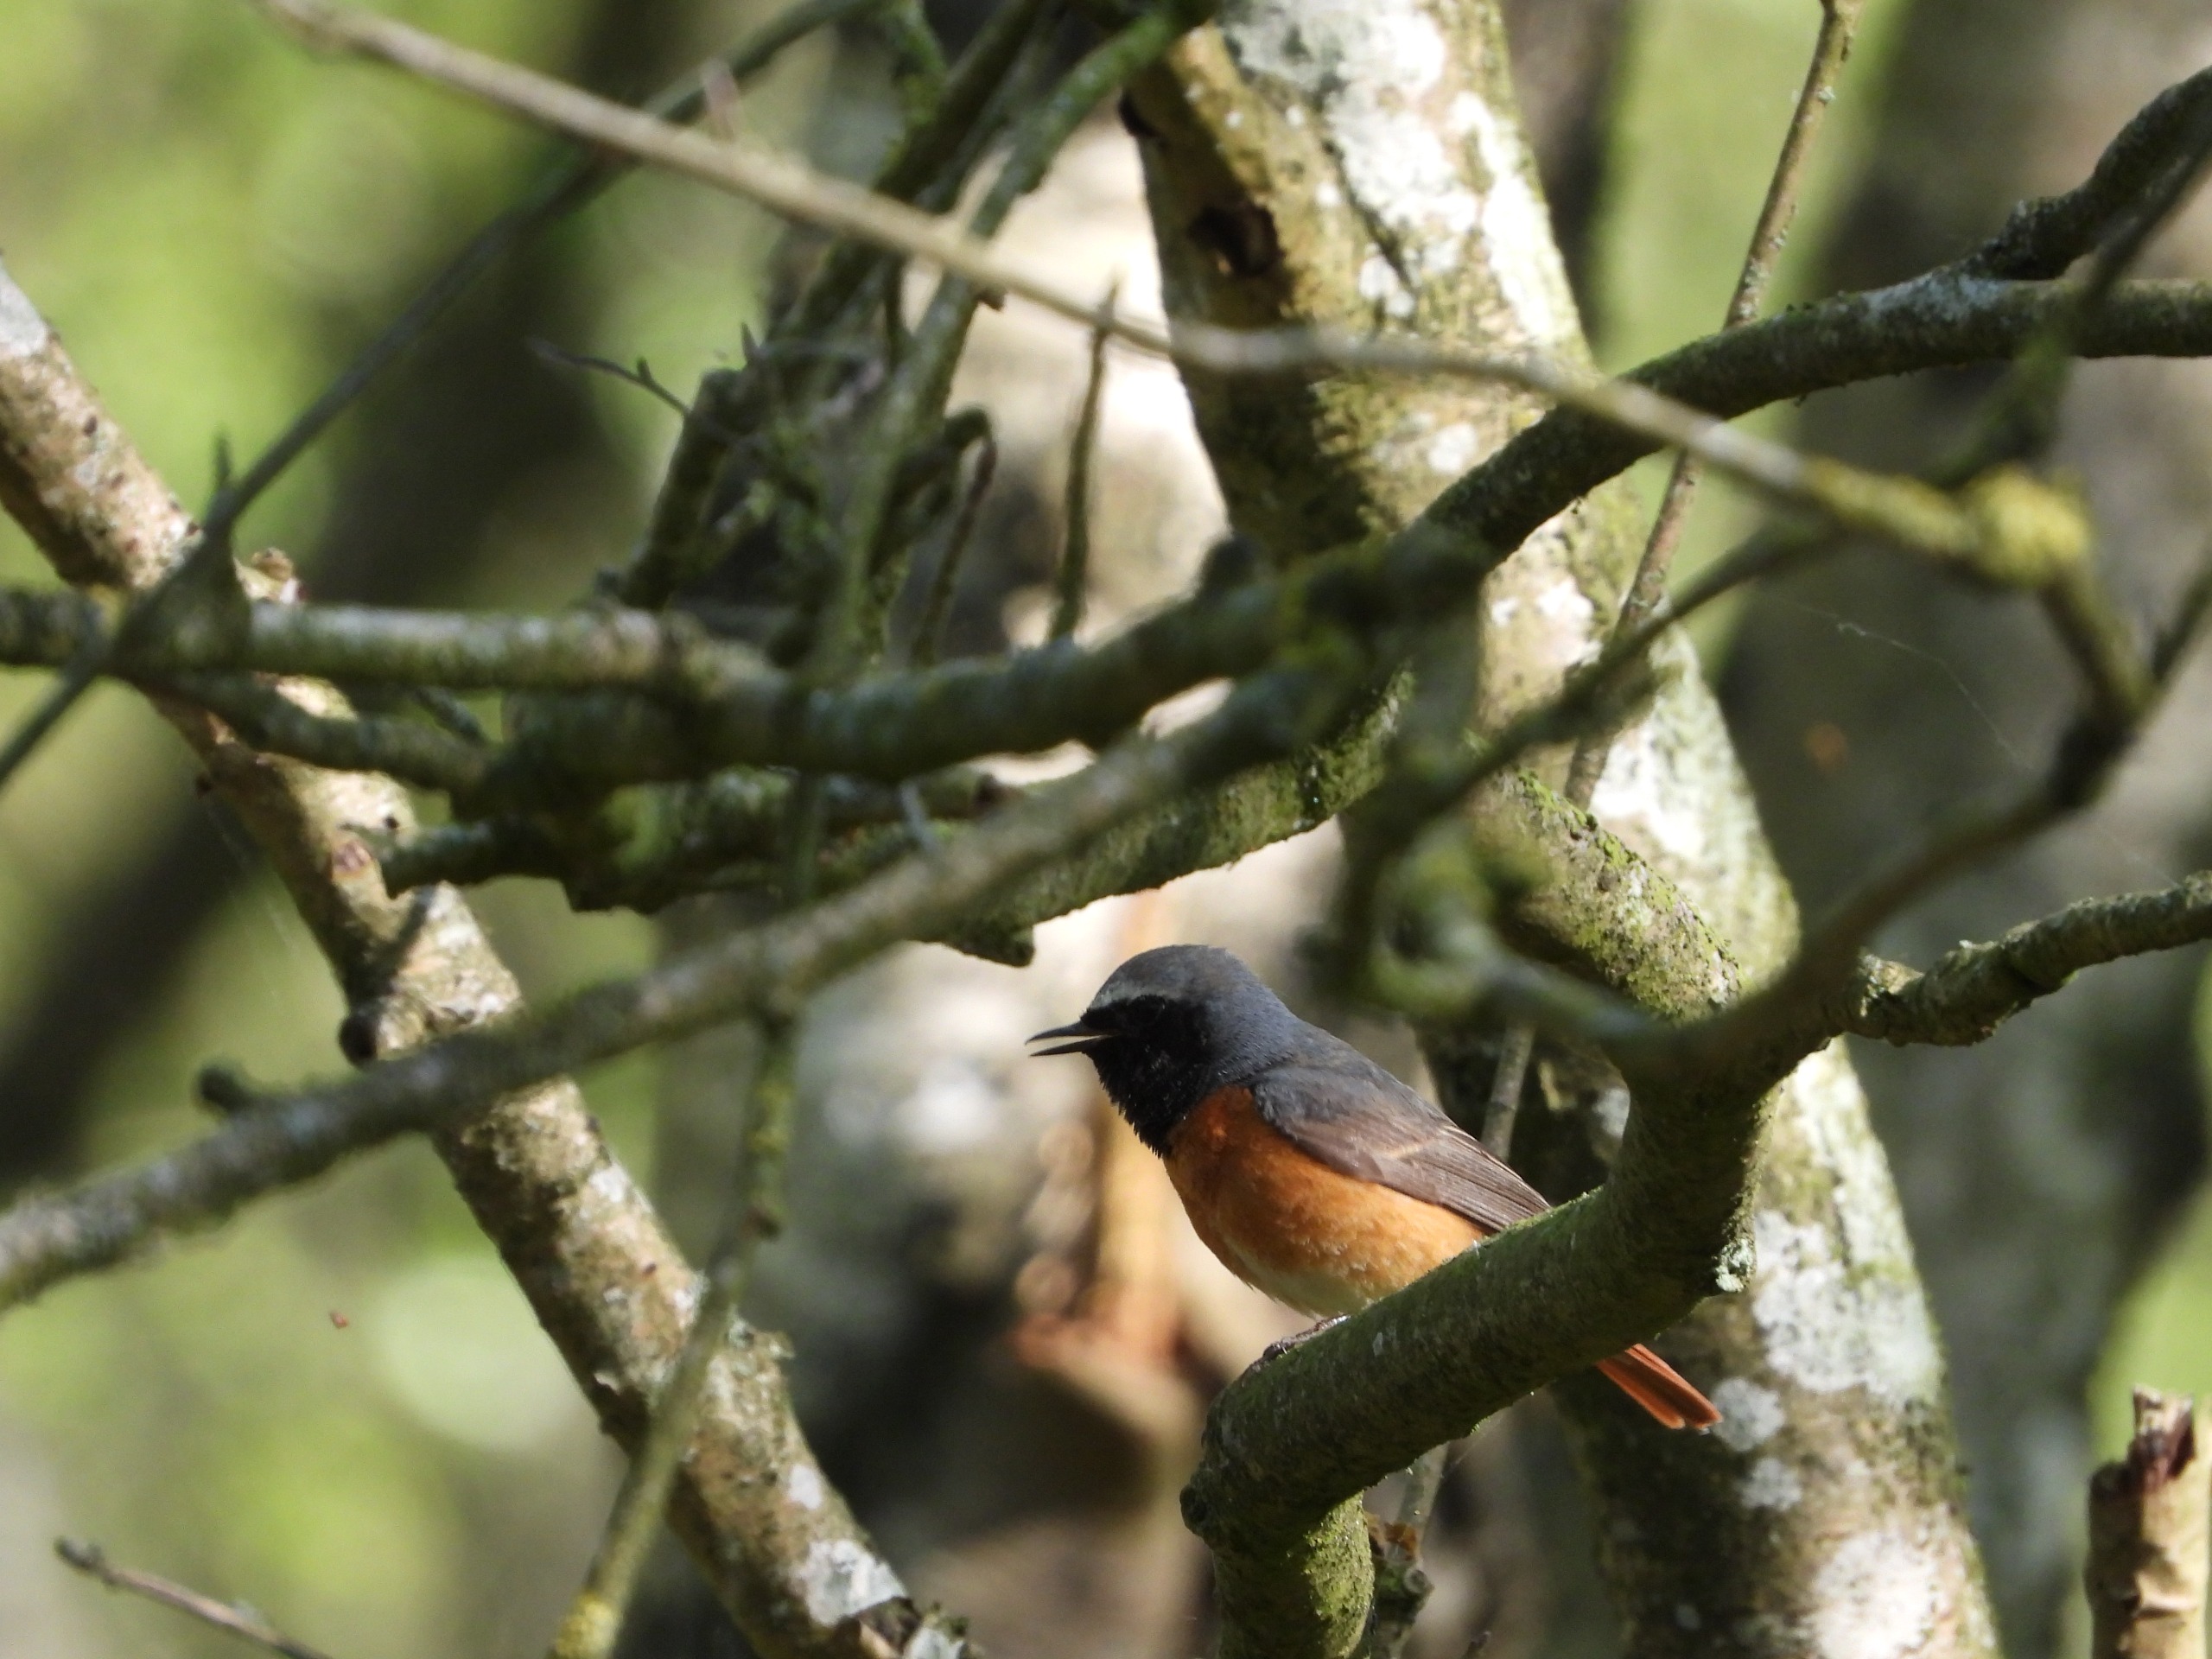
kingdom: Animalia
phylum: Chordata
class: Aves
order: Passeriformes
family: Muscicapidae
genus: Phoenicurus
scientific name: Phoenicurus phoenicurus
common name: Rødstjert
